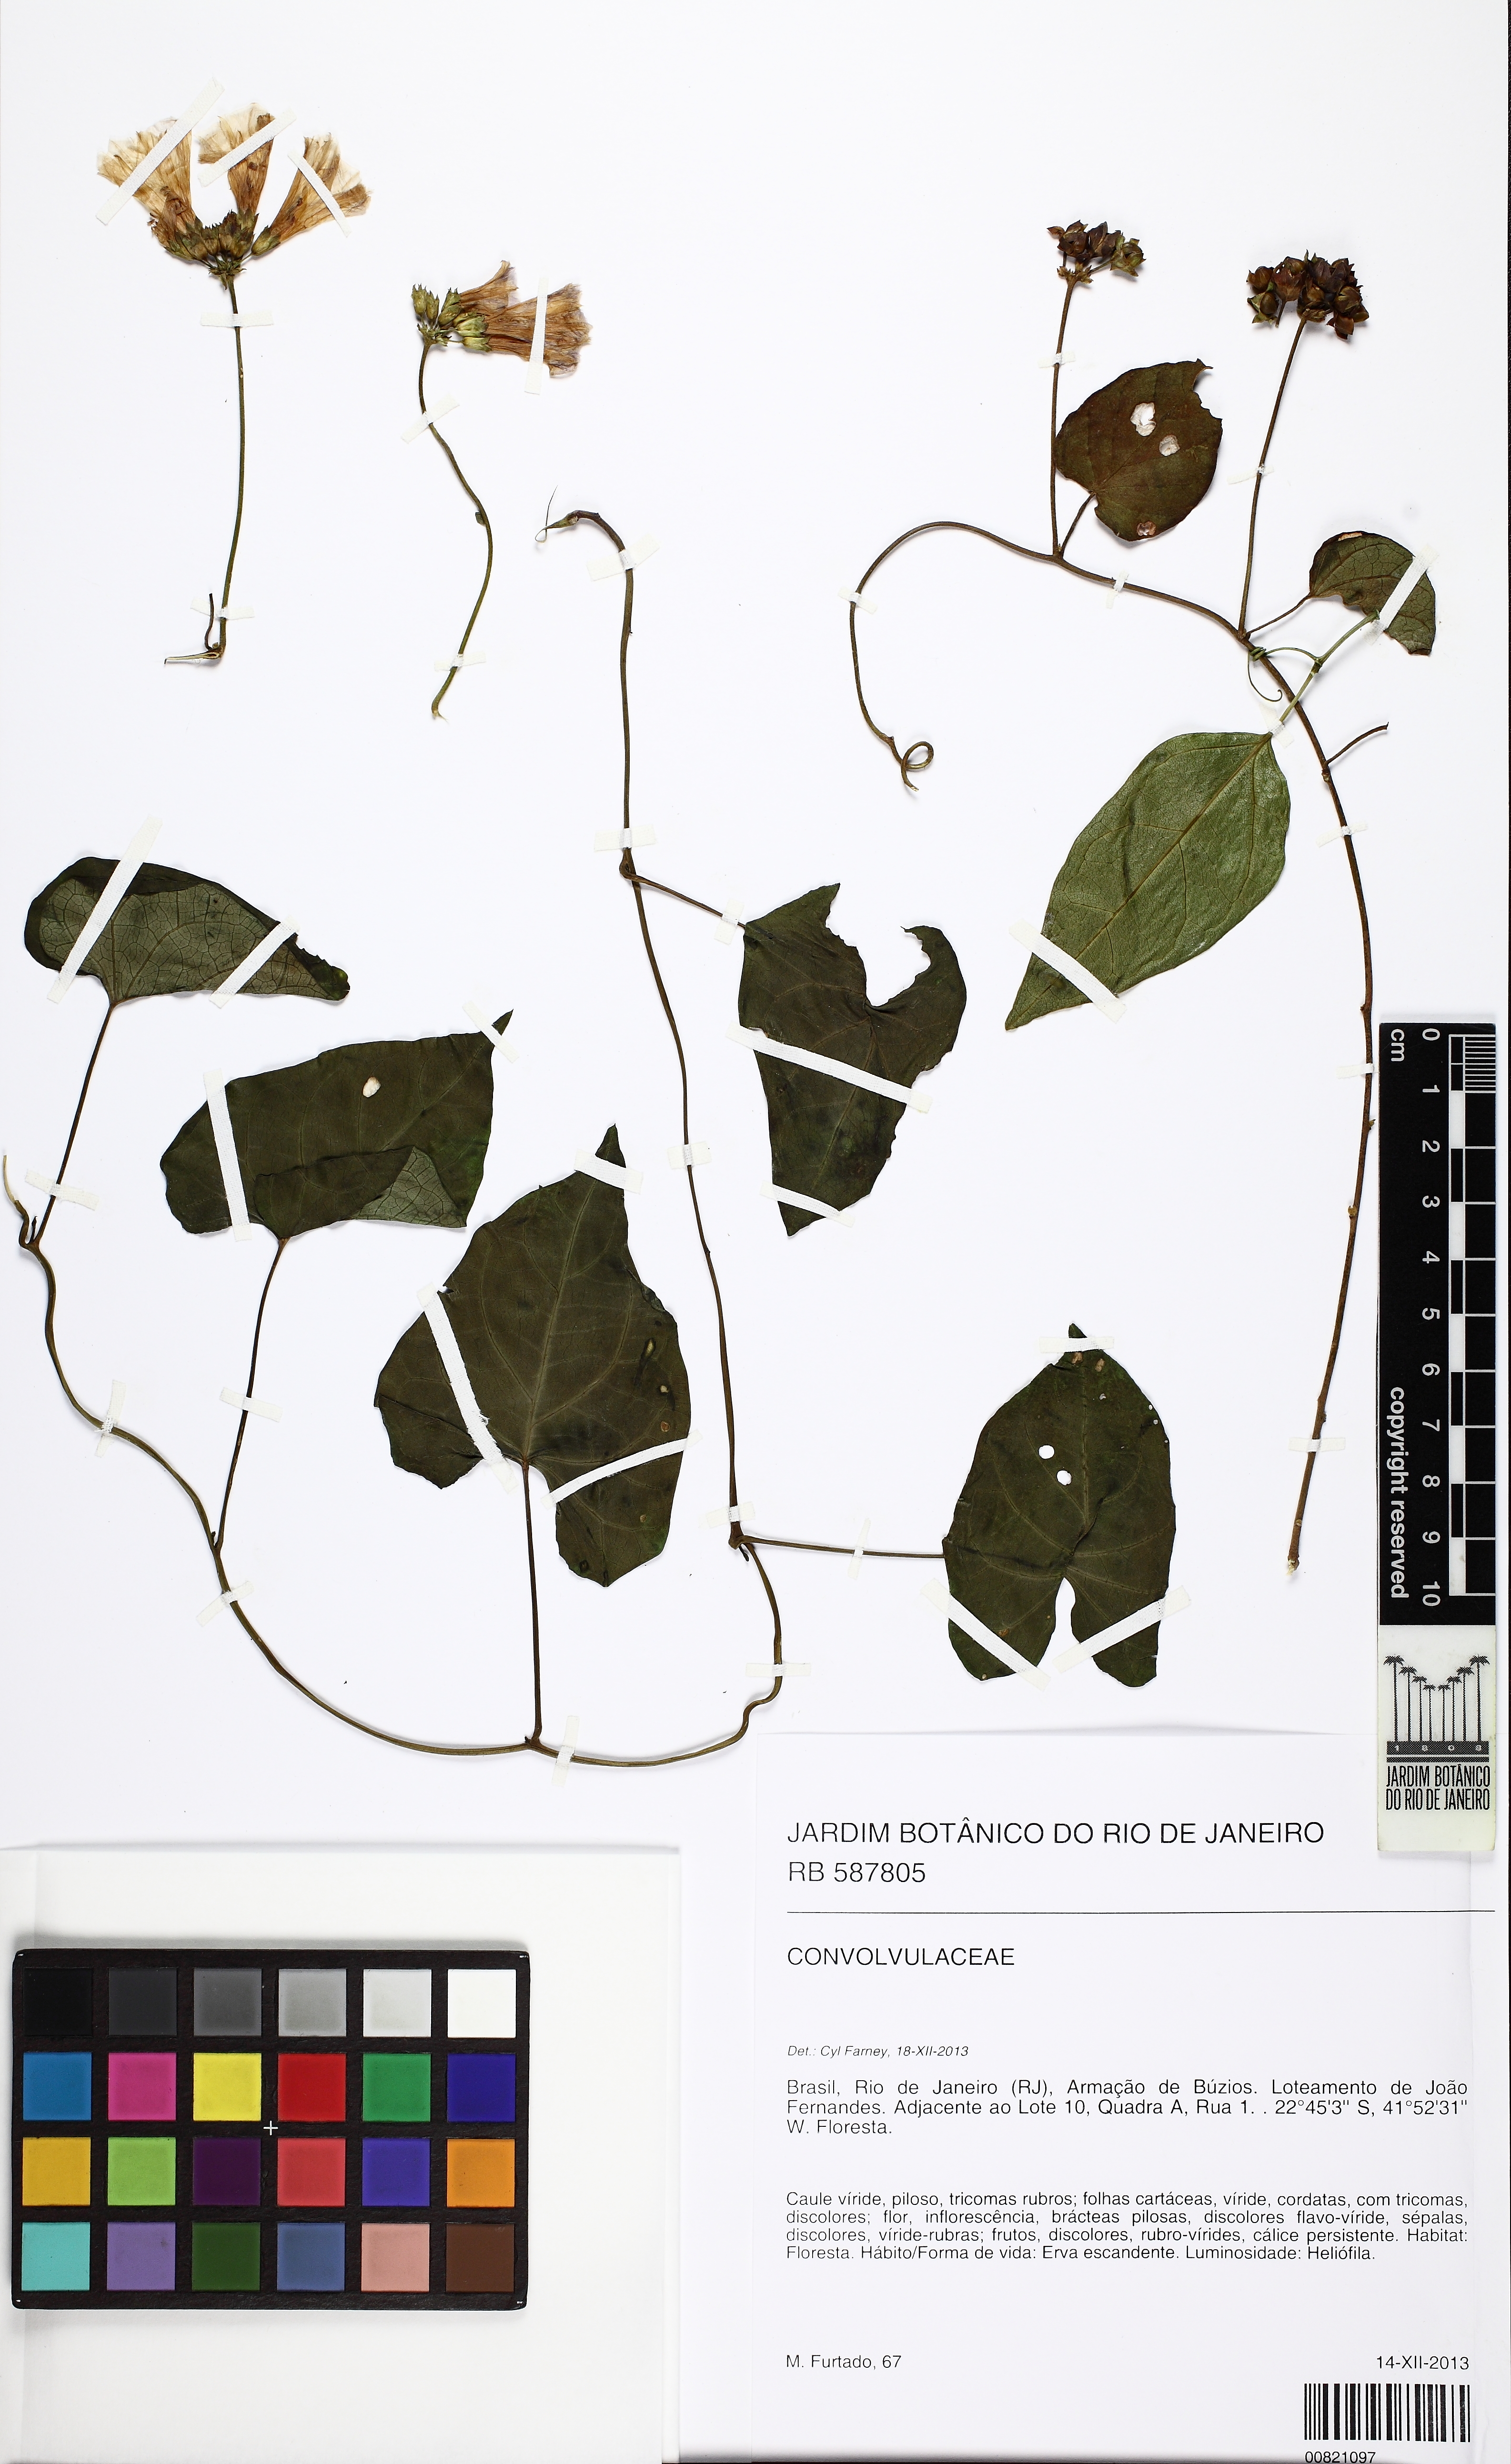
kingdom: Plantae
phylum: Tracheophyta
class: Magnoliopsida
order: Solanales
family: Convolvulaceae
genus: Jacquemontia
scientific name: Jacquemontia
